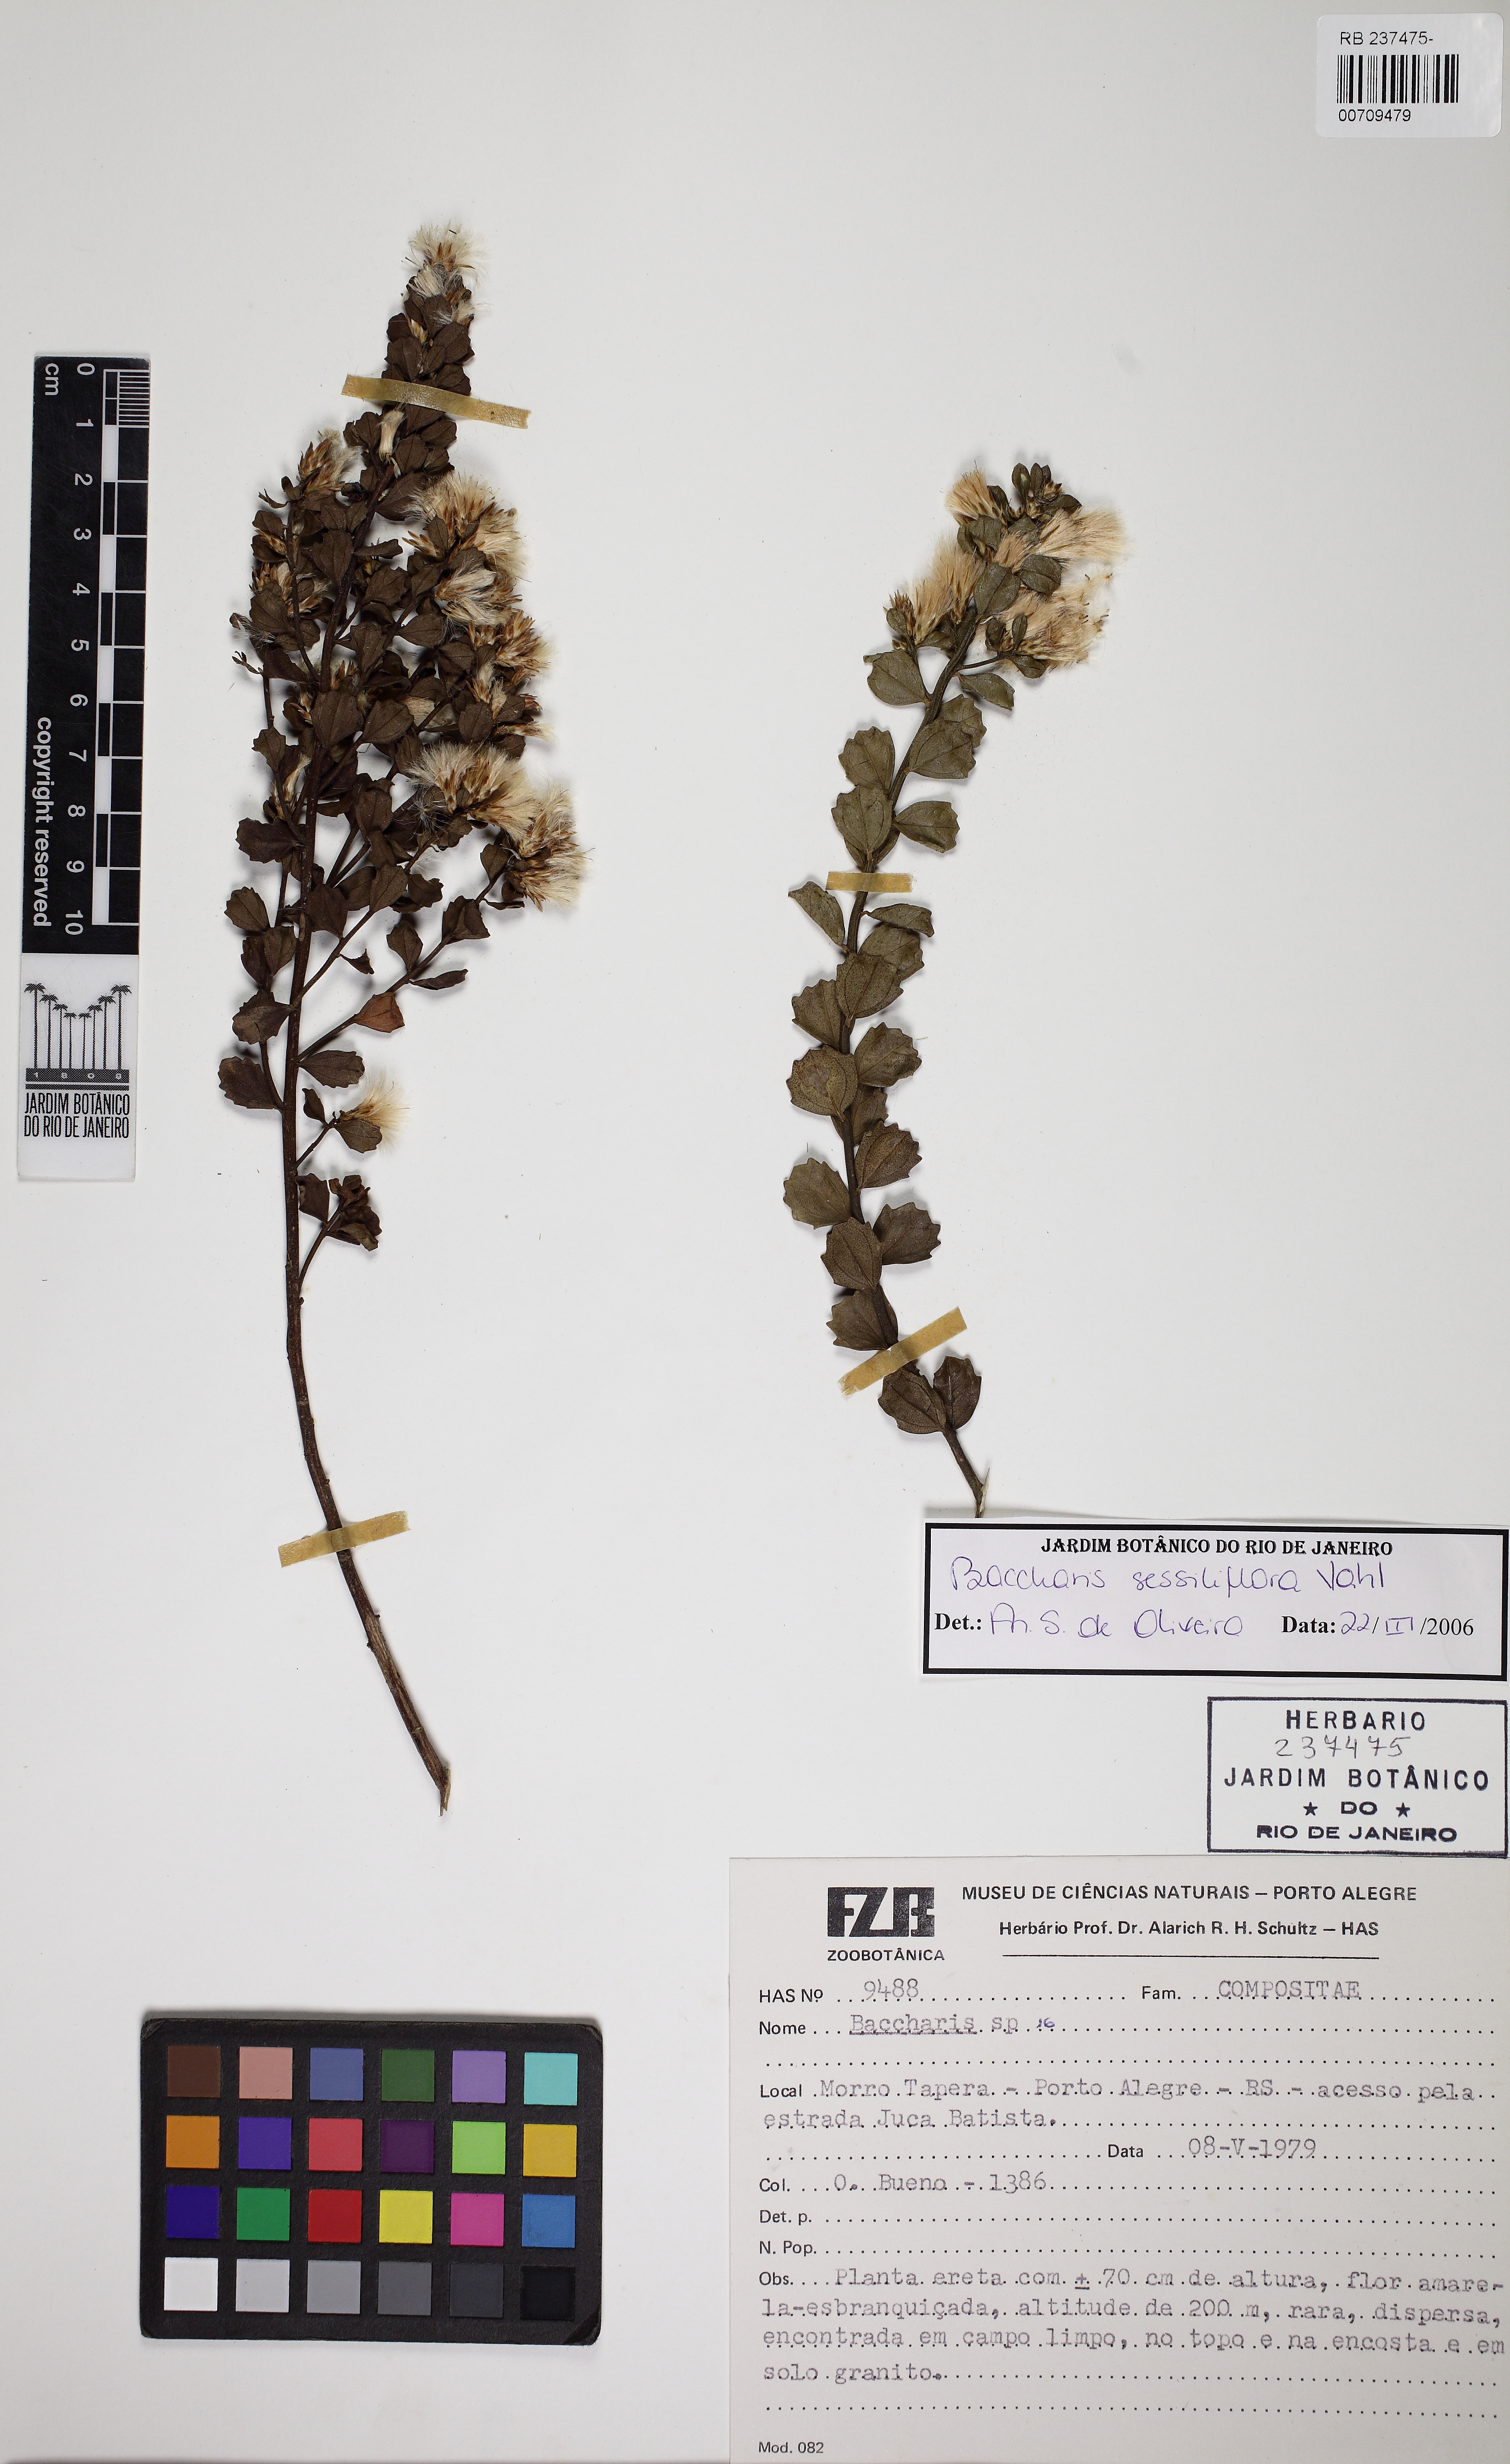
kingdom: Plantae
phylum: Tracheophyta
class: Magnoliopsida
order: Asterales
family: Asteraceae
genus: Baccharis
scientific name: Baccharis sessiliflora
